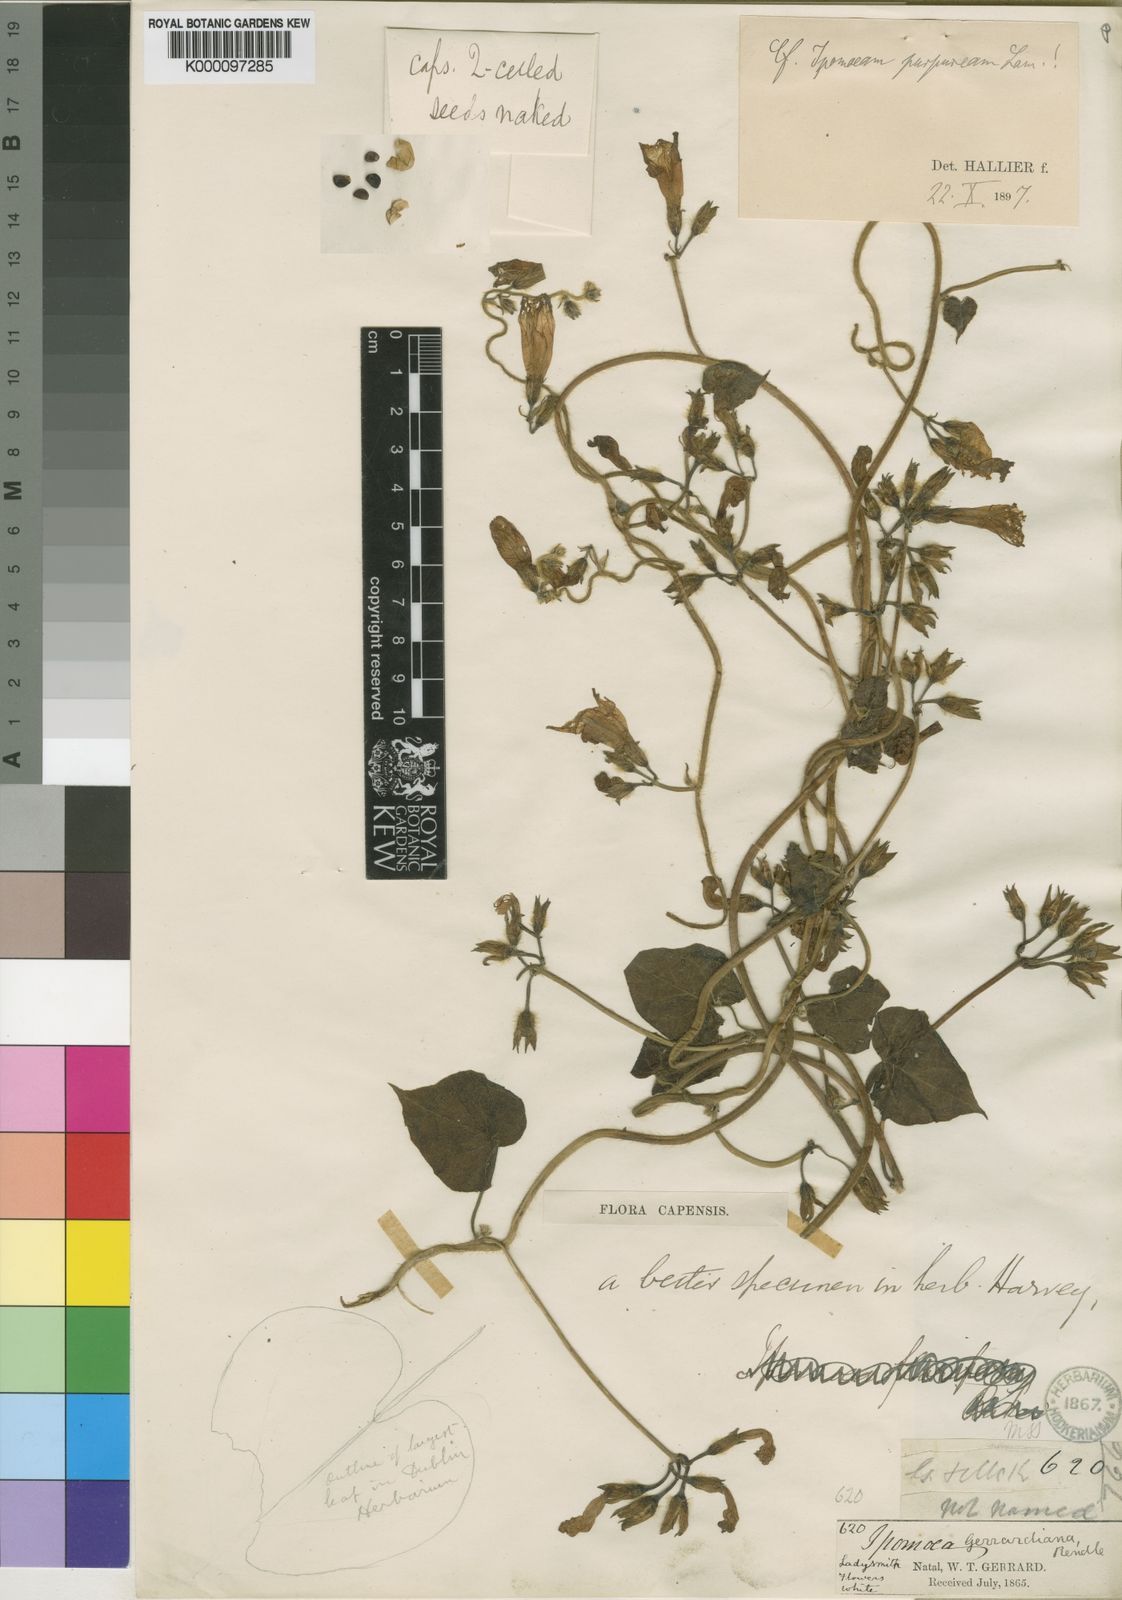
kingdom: Plantae
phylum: Tracheophyta
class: Magnoliopsida
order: Solanales
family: Convolvulaceae
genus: Ipomoea
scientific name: Ipomoea purpurea
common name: Common morning-glory
